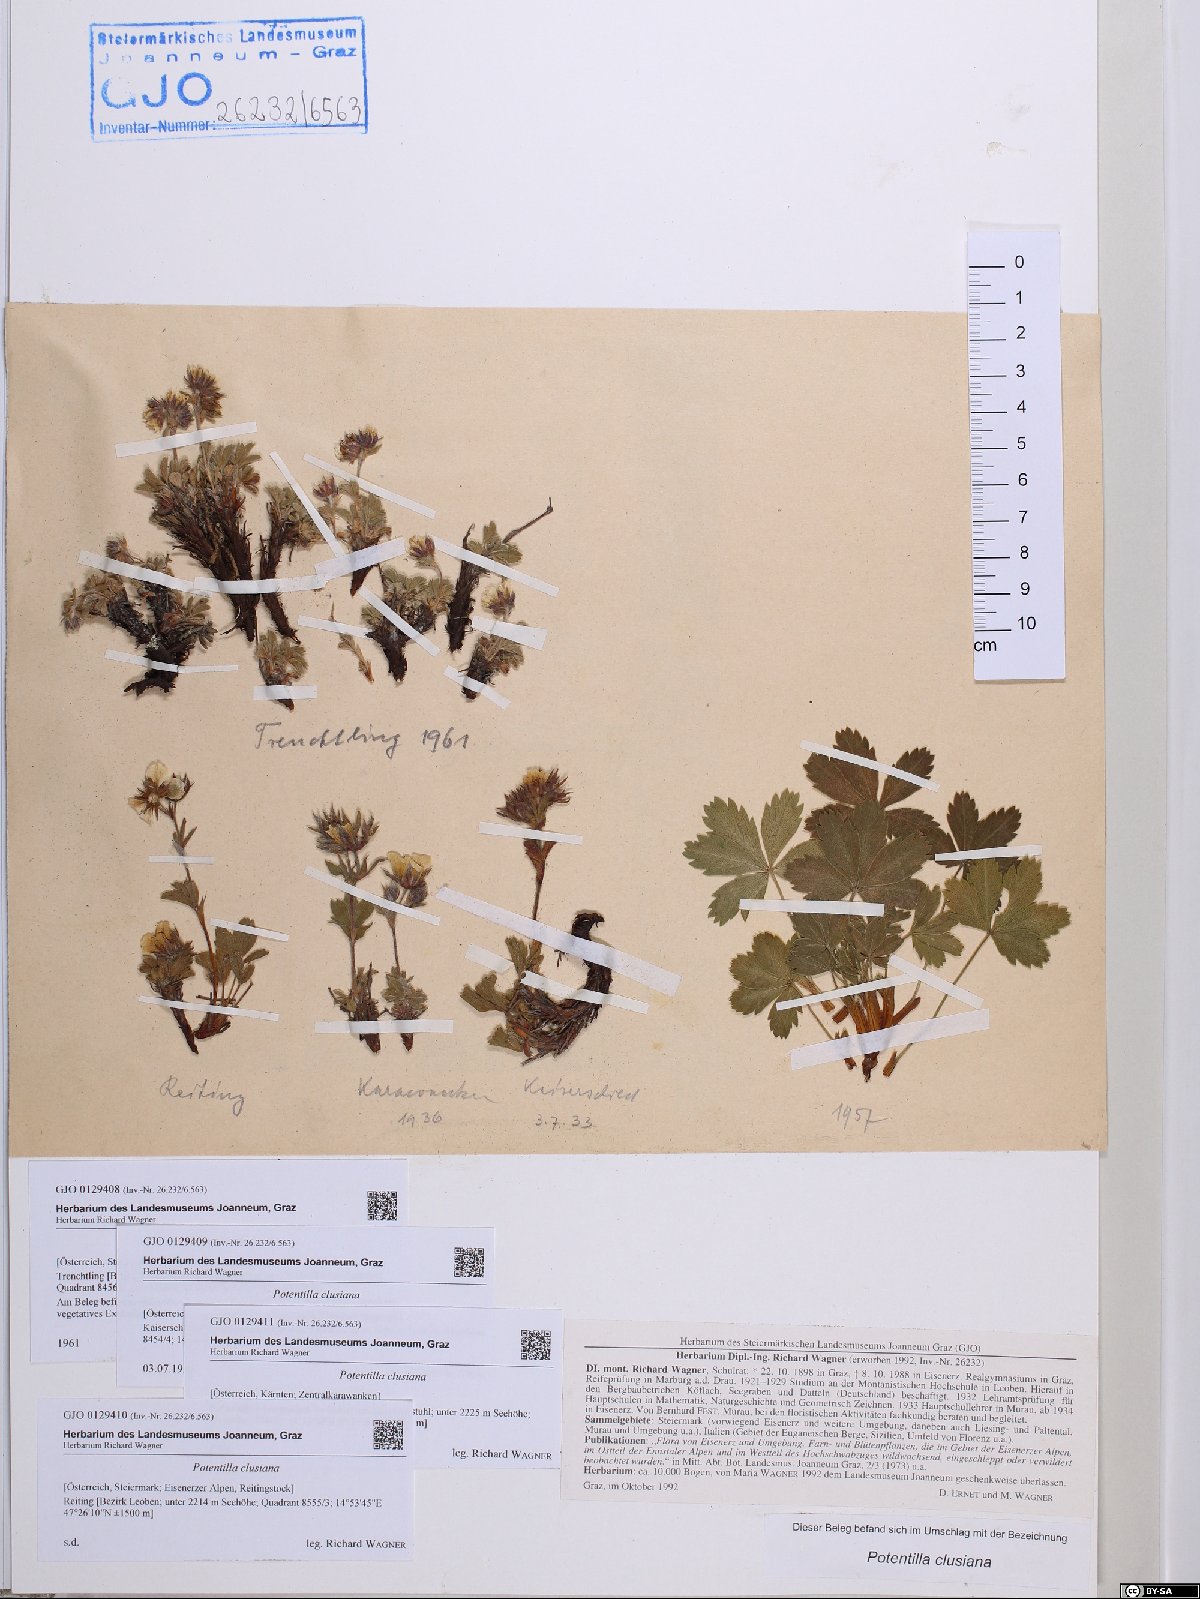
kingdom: Plantae
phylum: Tracheophyta
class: Magnoliopsida
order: Rosales
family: Rosaceae
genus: Potentilla
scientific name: Potentilla clusiana
